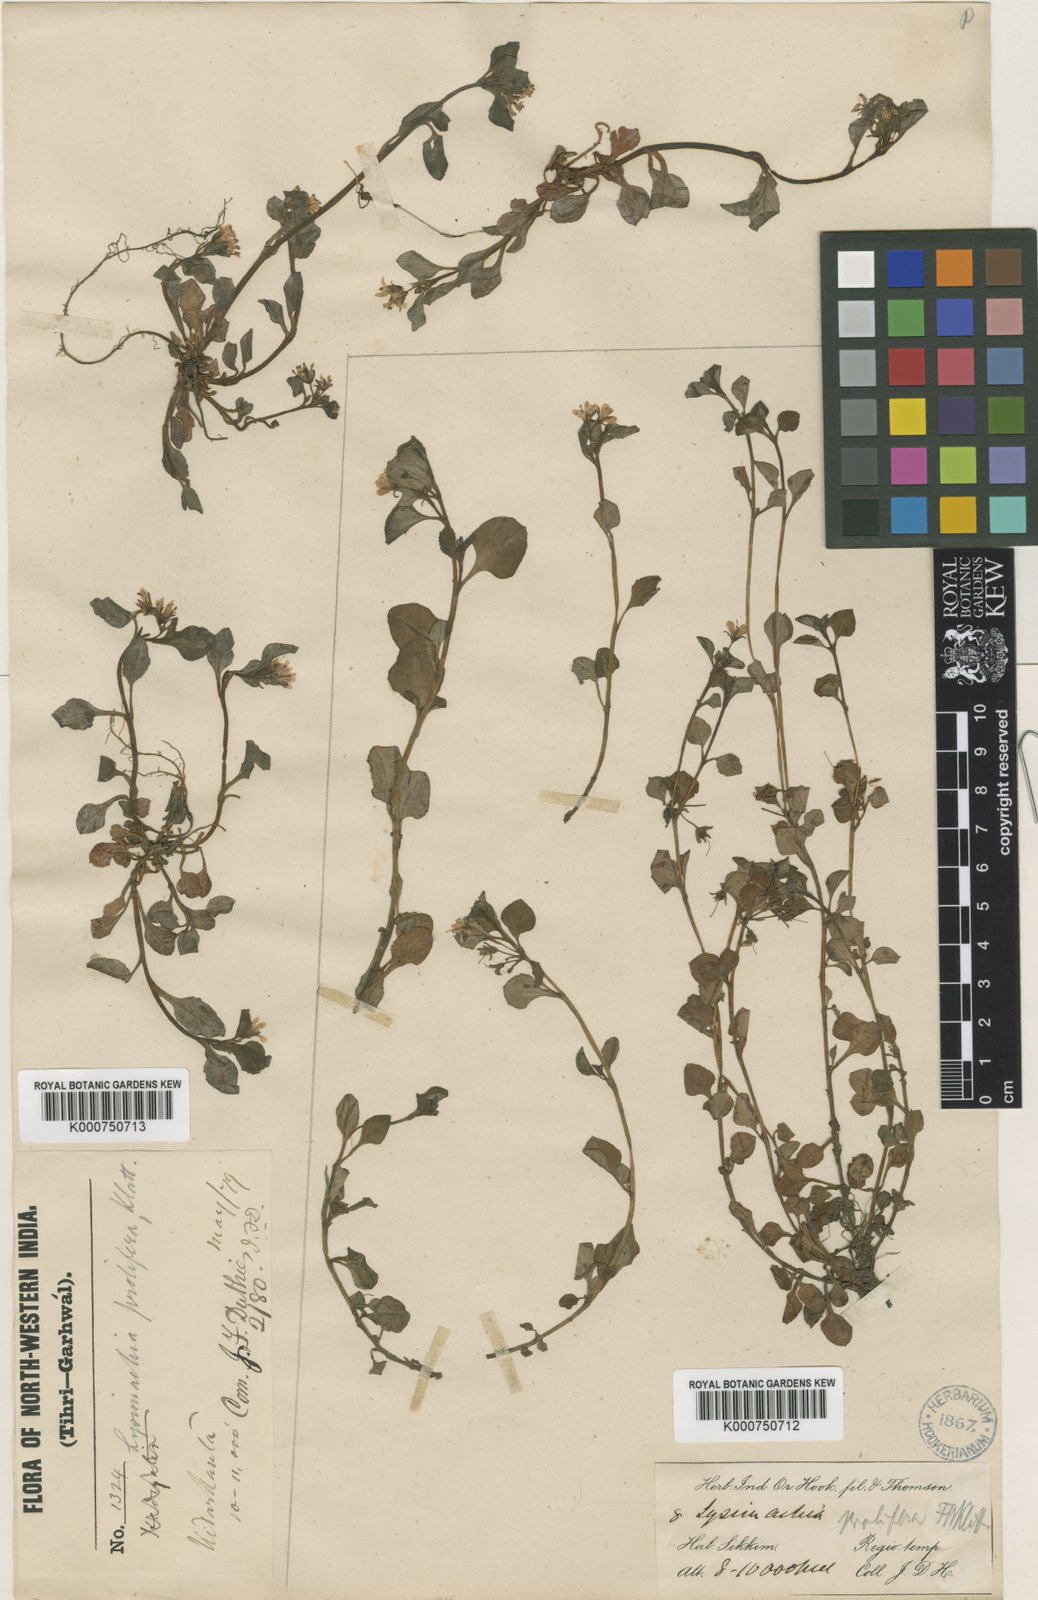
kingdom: Plantae
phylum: Tracheophyta
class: Magnoliopsida
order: Ericales
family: Primulaceae
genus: Lysimachia
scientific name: Lysimachia prolifera
